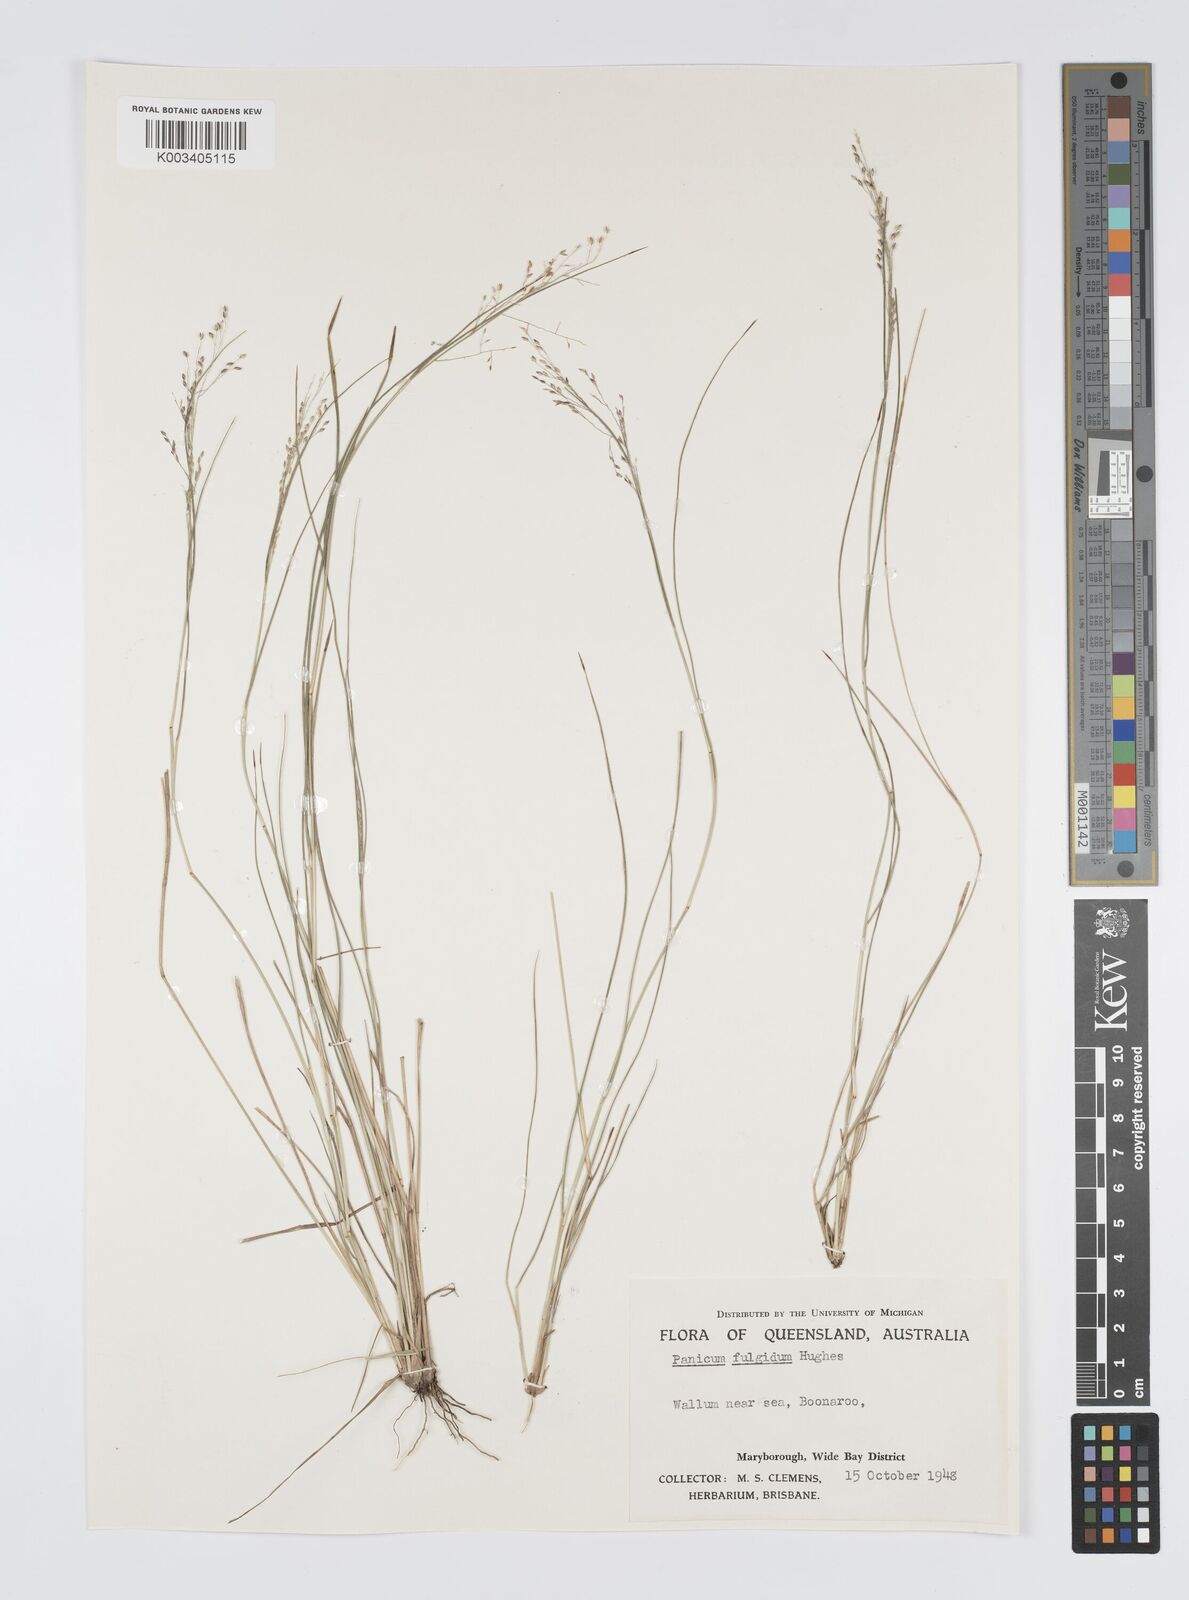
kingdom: Plantae
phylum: Tracheophyta
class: Liliopsida
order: Poales
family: Poaceae
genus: Panicum
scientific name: Panicum simile
